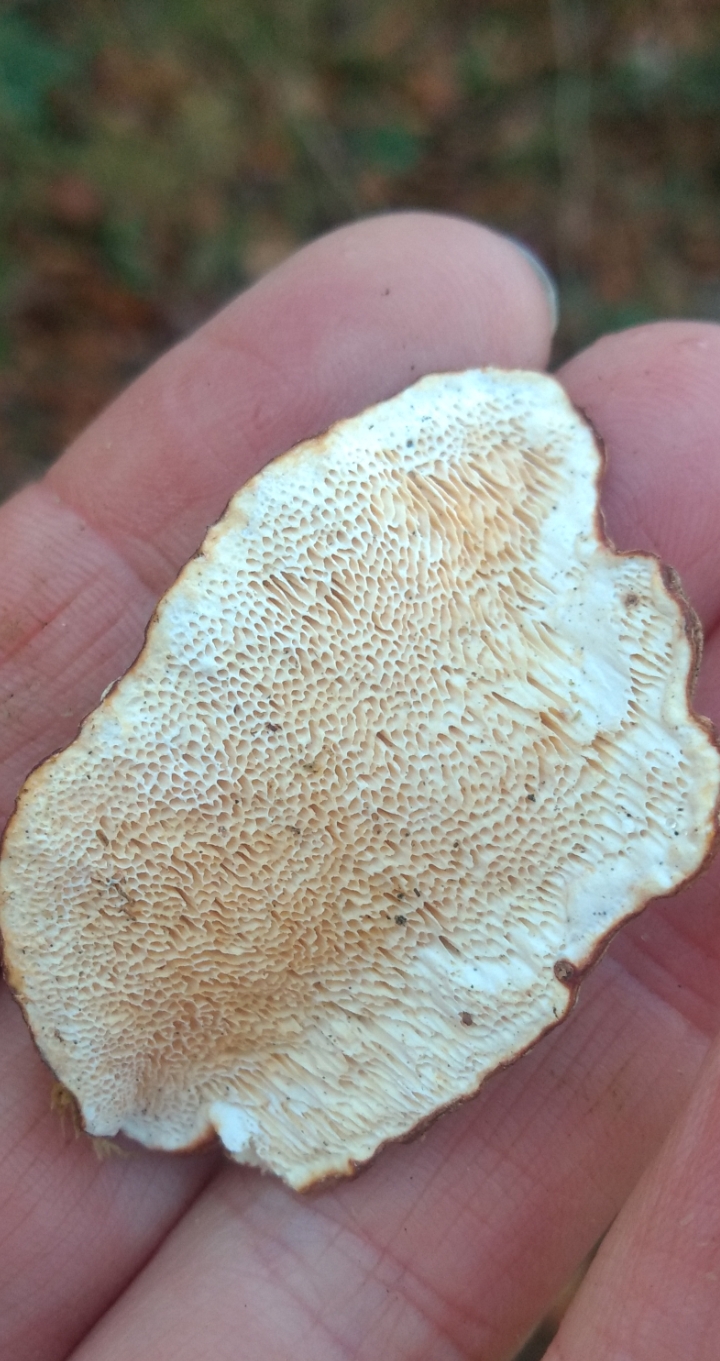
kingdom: Fungi
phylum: Basidiomycota
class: Agaricomycetes
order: Russulales
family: Bondarzewiaceae
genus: Heterobasidion
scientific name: Heterobasidion
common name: rodfordærver
